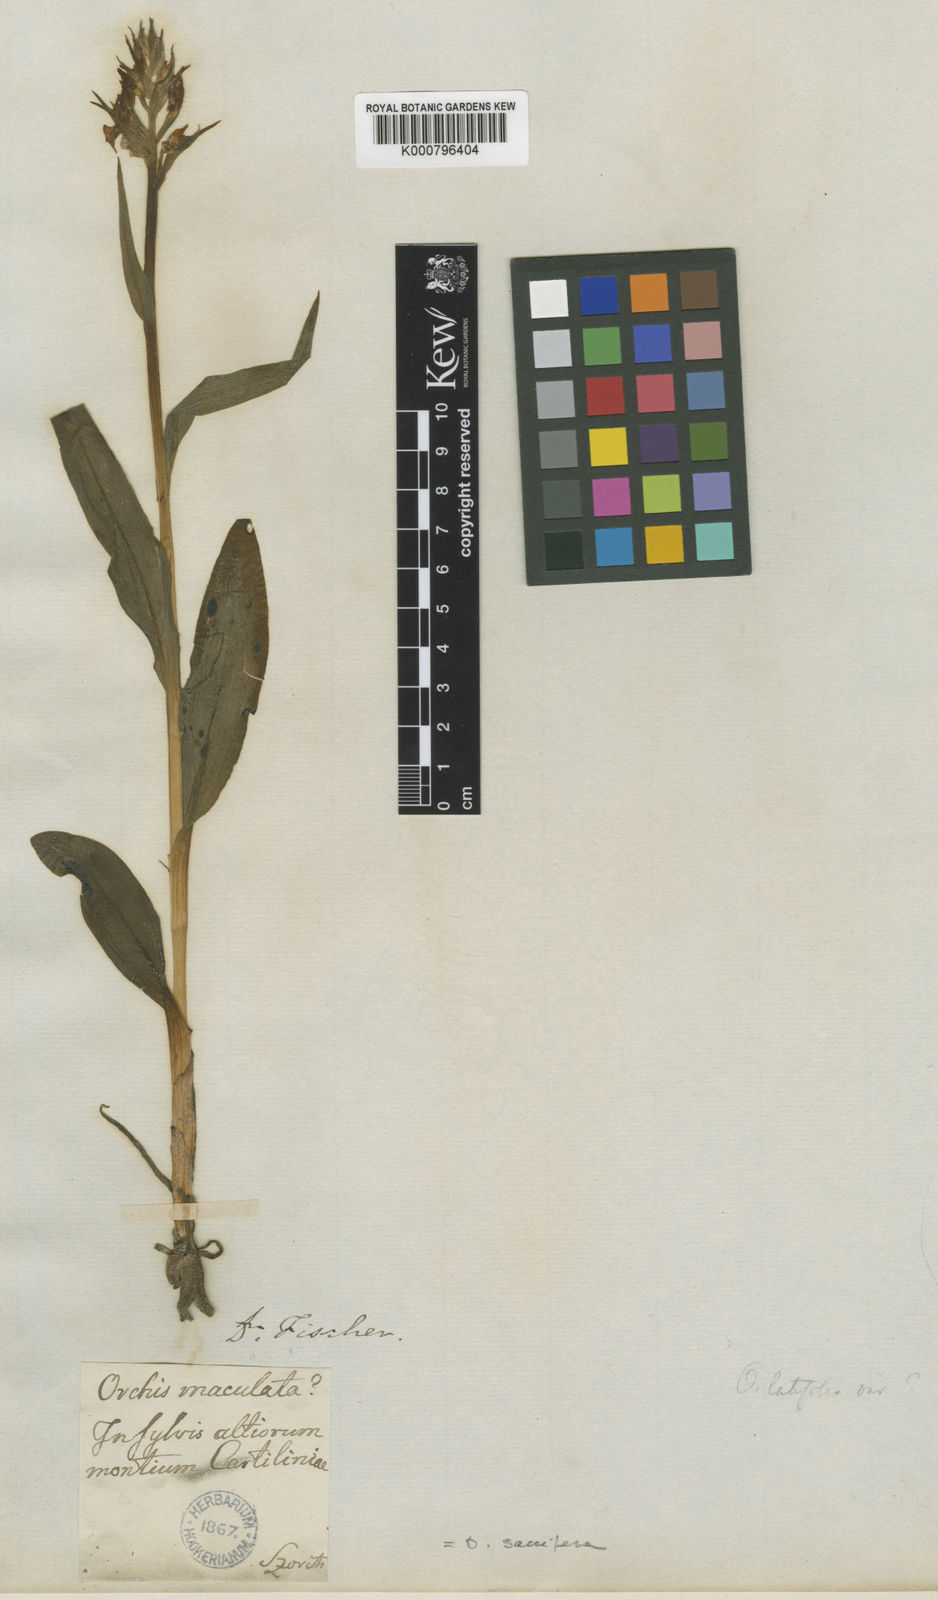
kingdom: Plantae
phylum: Tracheophyta
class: Liliopsida
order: Asparagales
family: Orchidaceae
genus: Dactylorhiza
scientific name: Dactylorhiza
